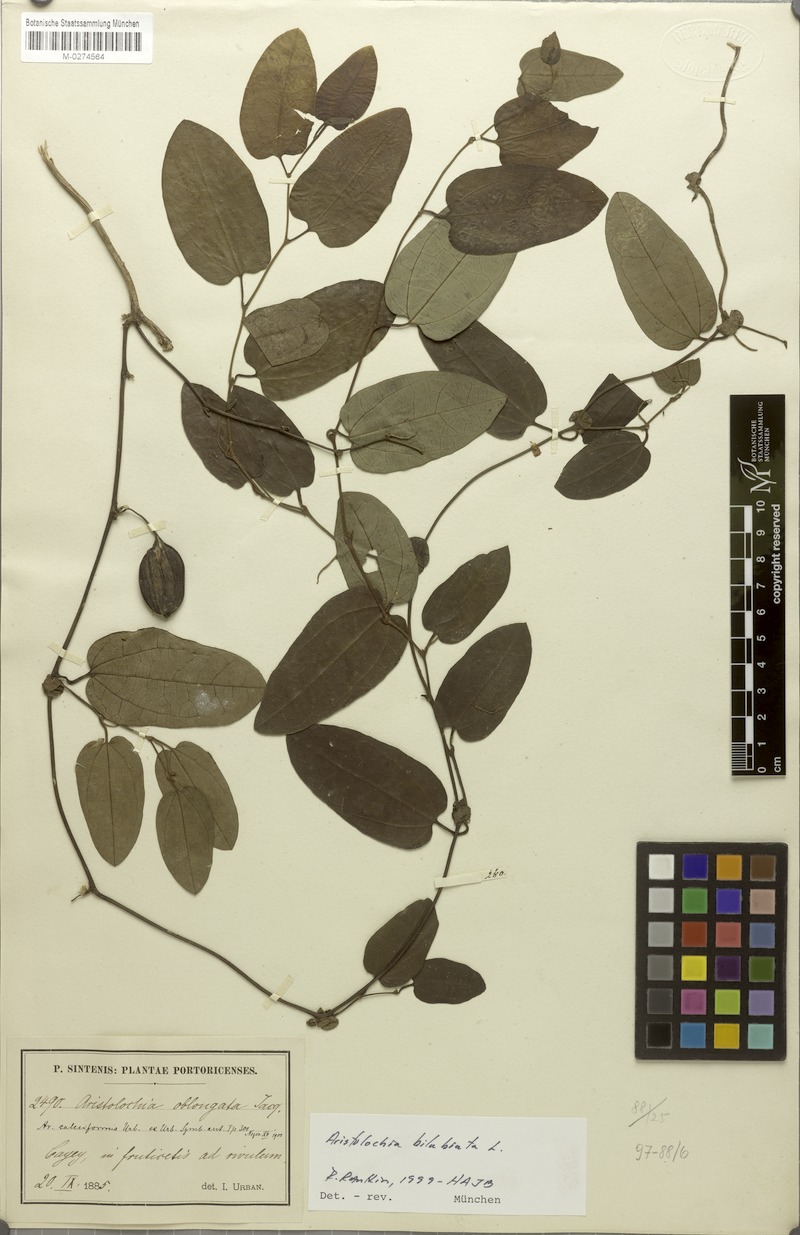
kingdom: Plantae
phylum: Tracheophyta
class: Magnoliopsida
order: Piperales
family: Aristolochiaceae
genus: Aristolochia
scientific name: Aristolochia bilabiata
